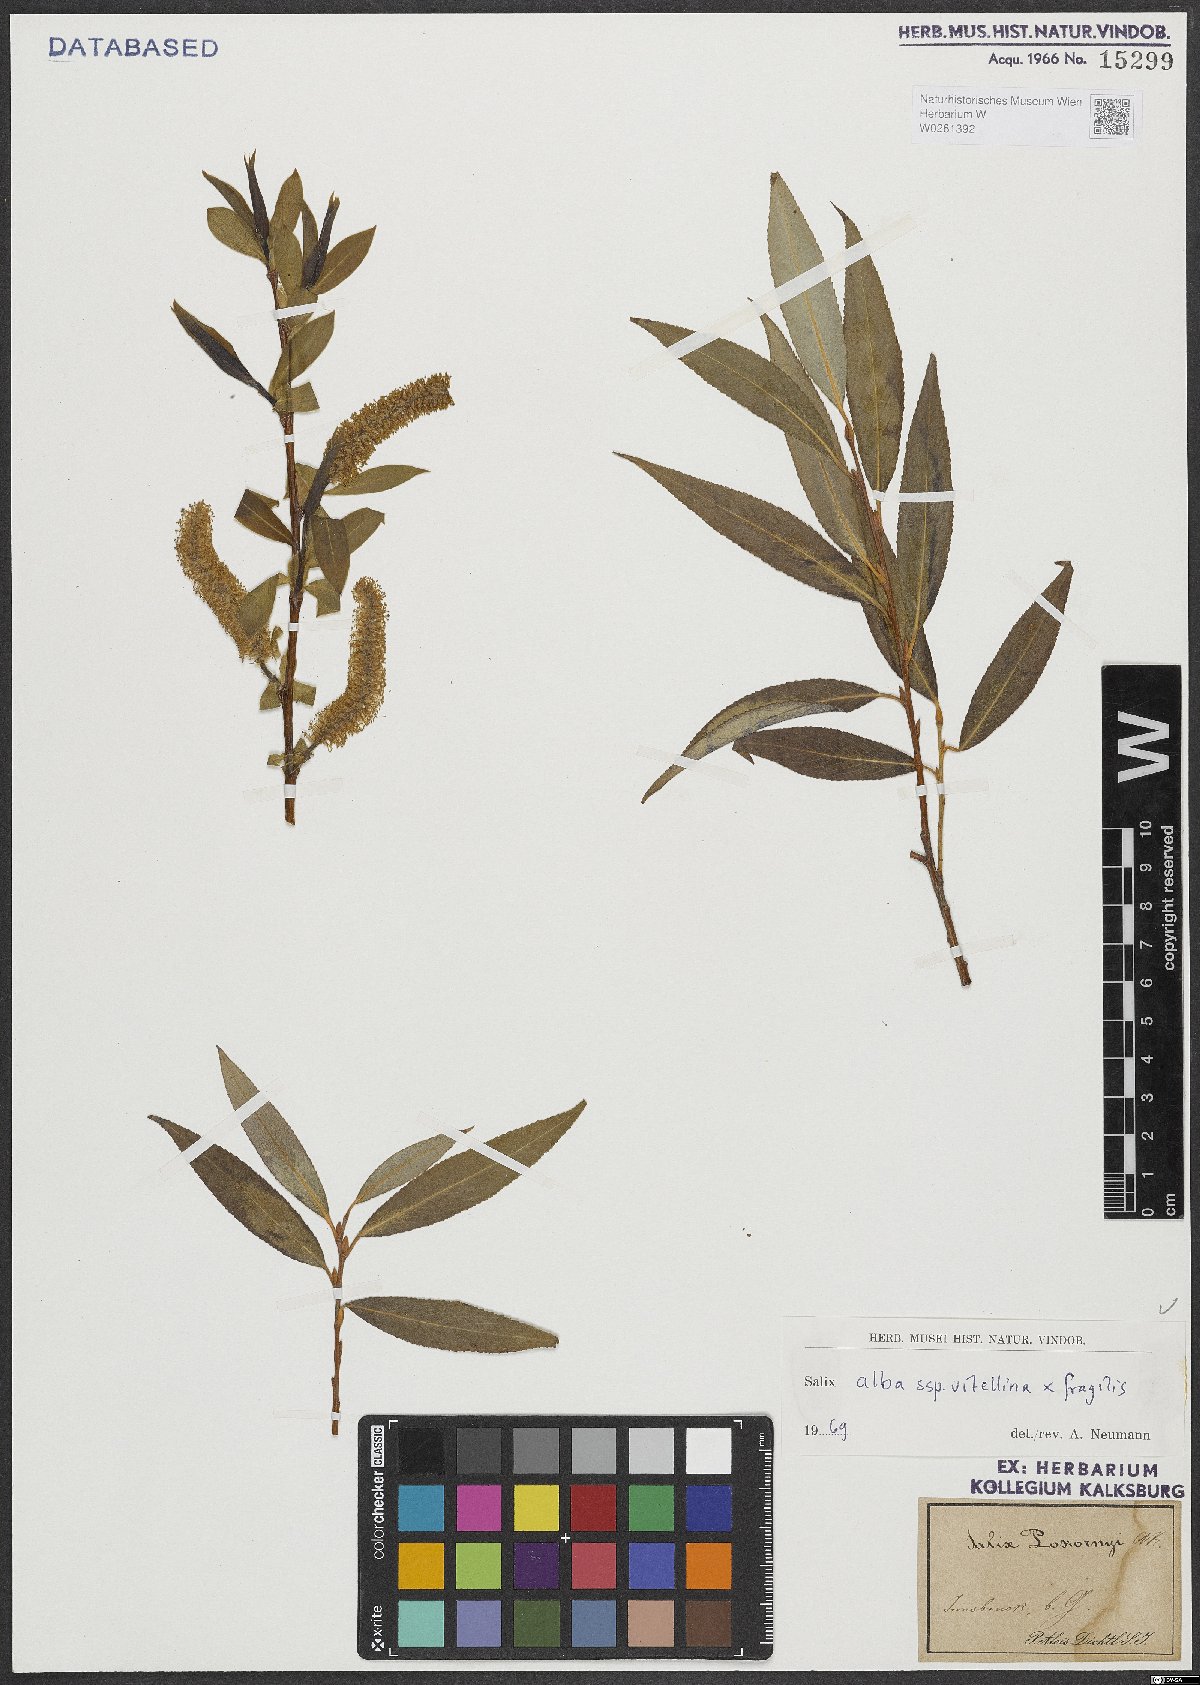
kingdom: Plantae
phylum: Tracheophyta
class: Magnoliopsida
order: Malpighiales
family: Salicaceae
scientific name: Salicaceae
